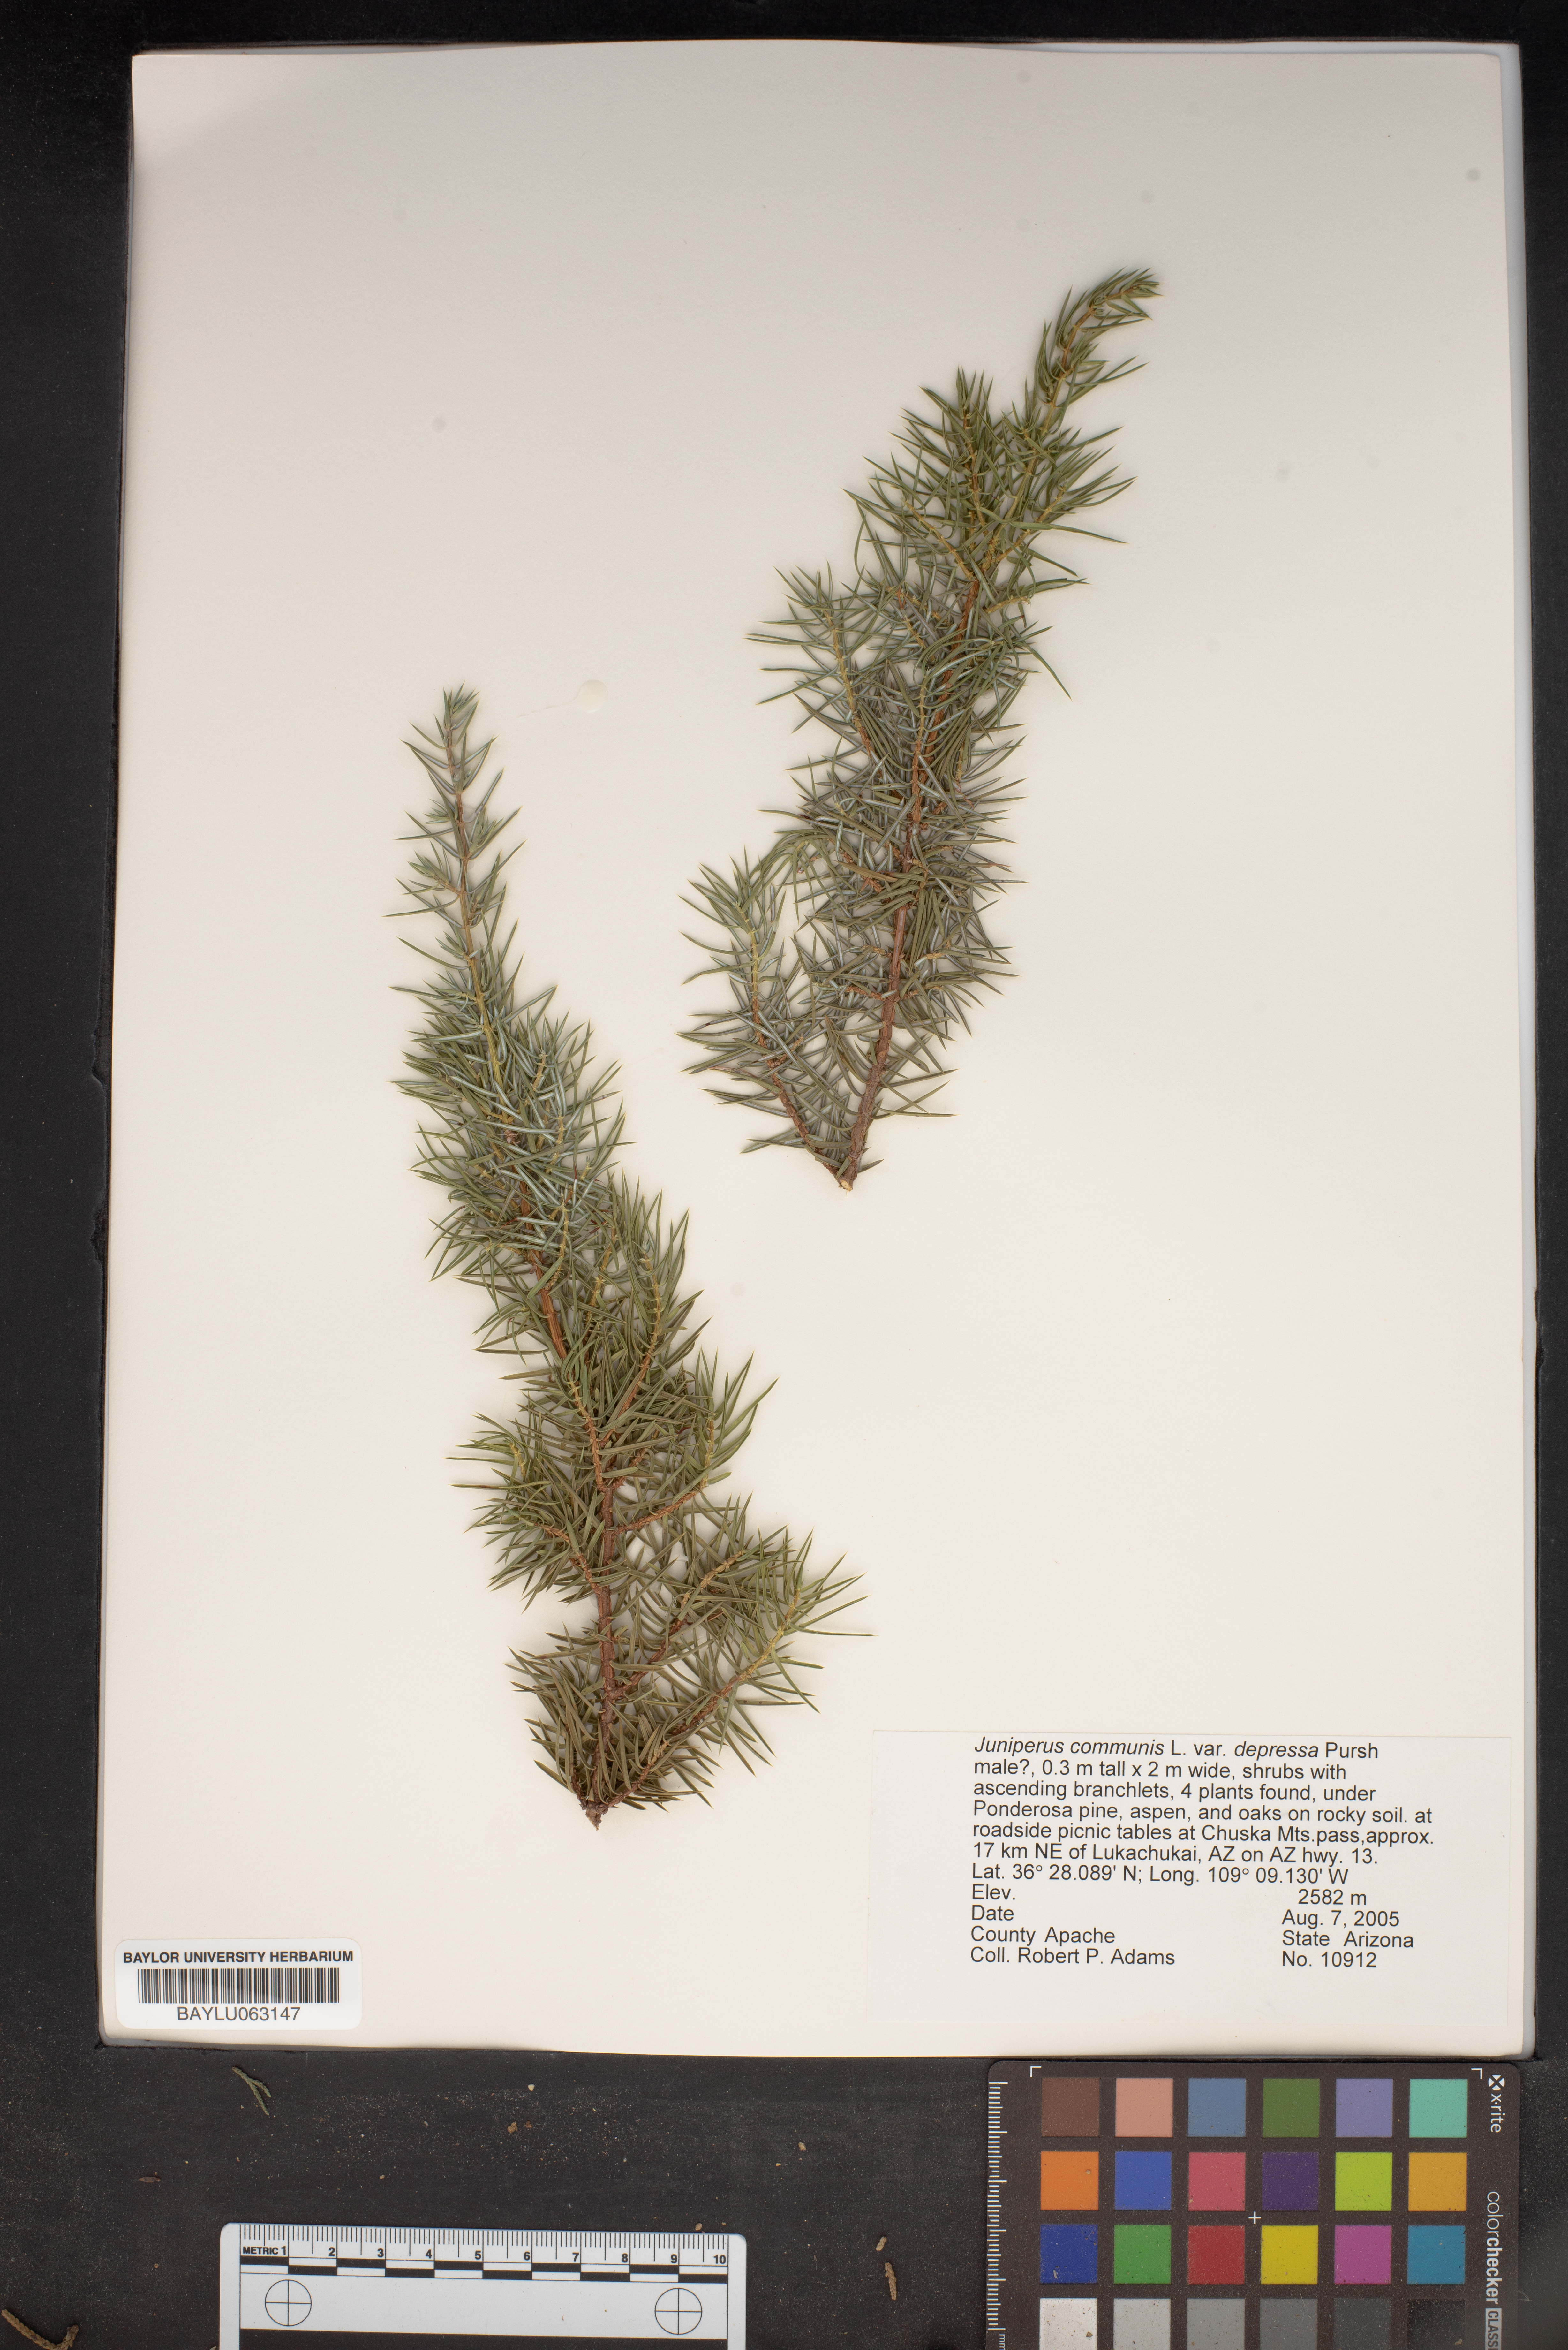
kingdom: Plantae
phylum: Tracheophyta
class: Pinopsida
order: Pinales
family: Cupressaceae
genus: Juniperus
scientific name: Juniperus communis
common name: Common juniper
